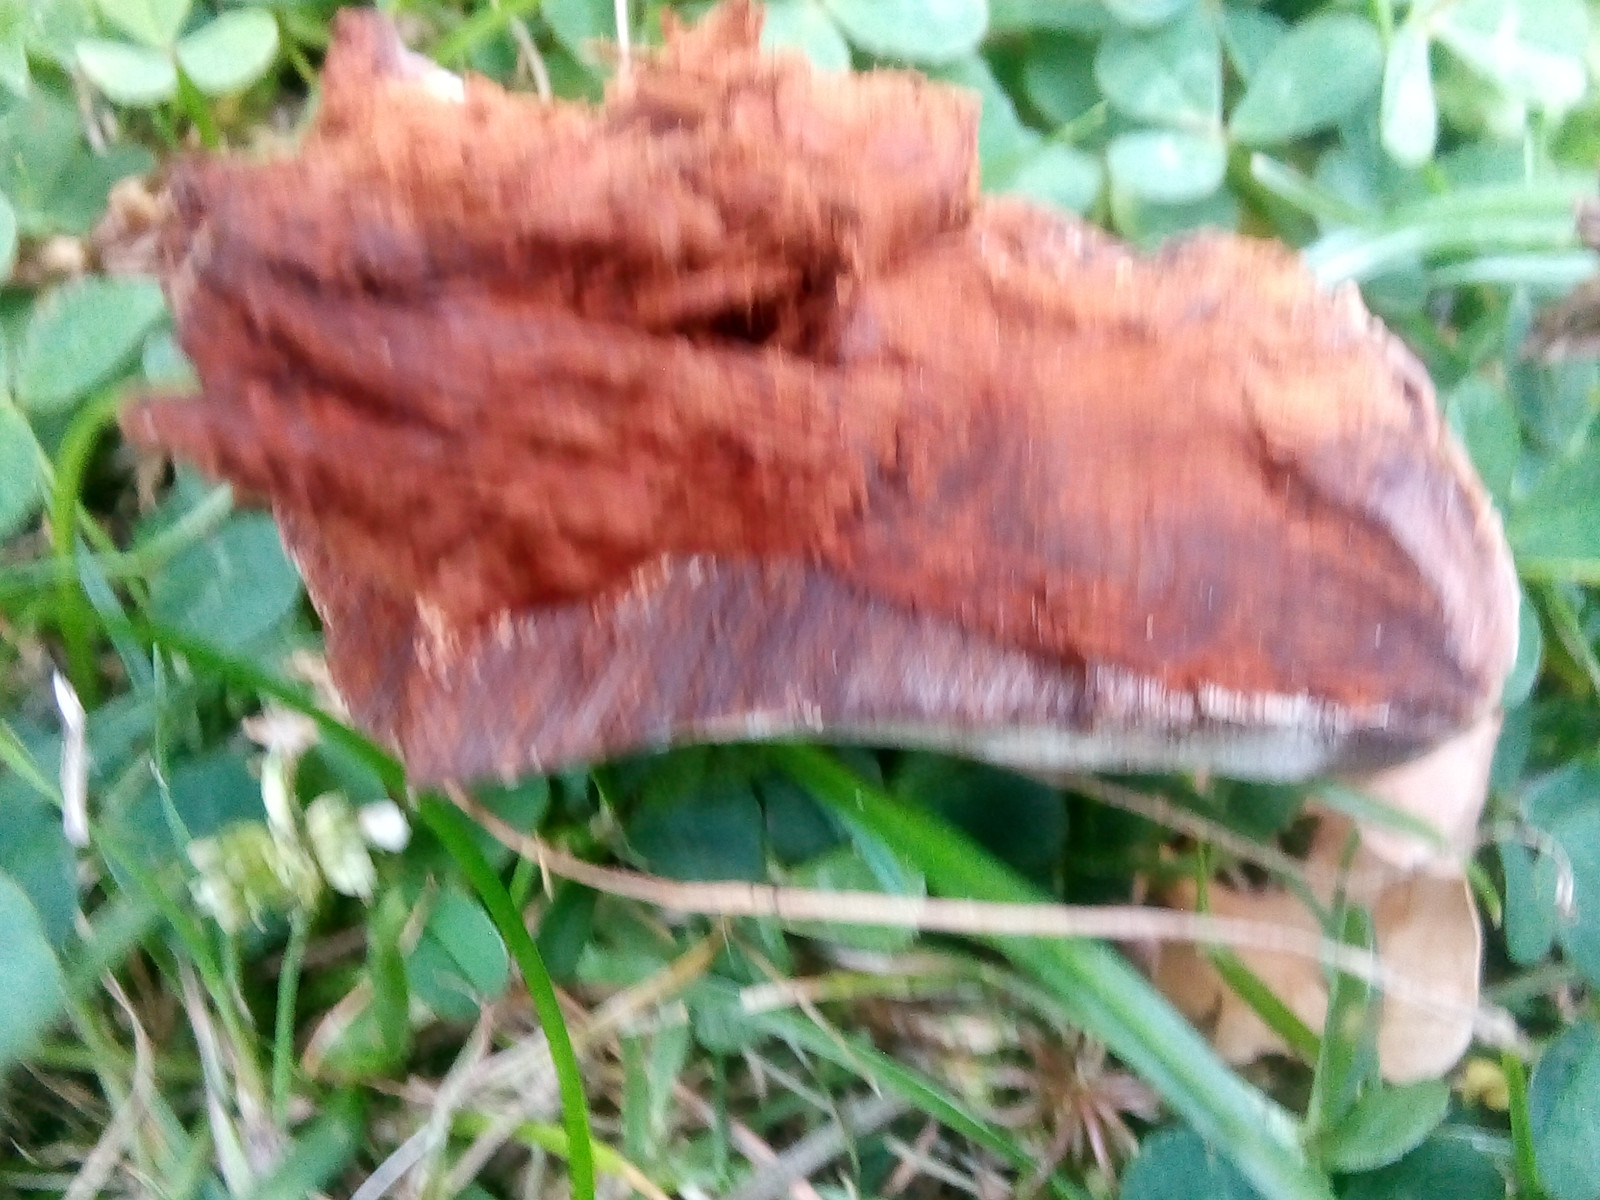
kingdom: Fungi
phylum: Basidiomycota
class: Agaricomycetes
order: Polyporales
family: Polyporaceae
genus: Ganoderma
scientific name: Ganoderma adspersum
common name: grov lakporesvamp
